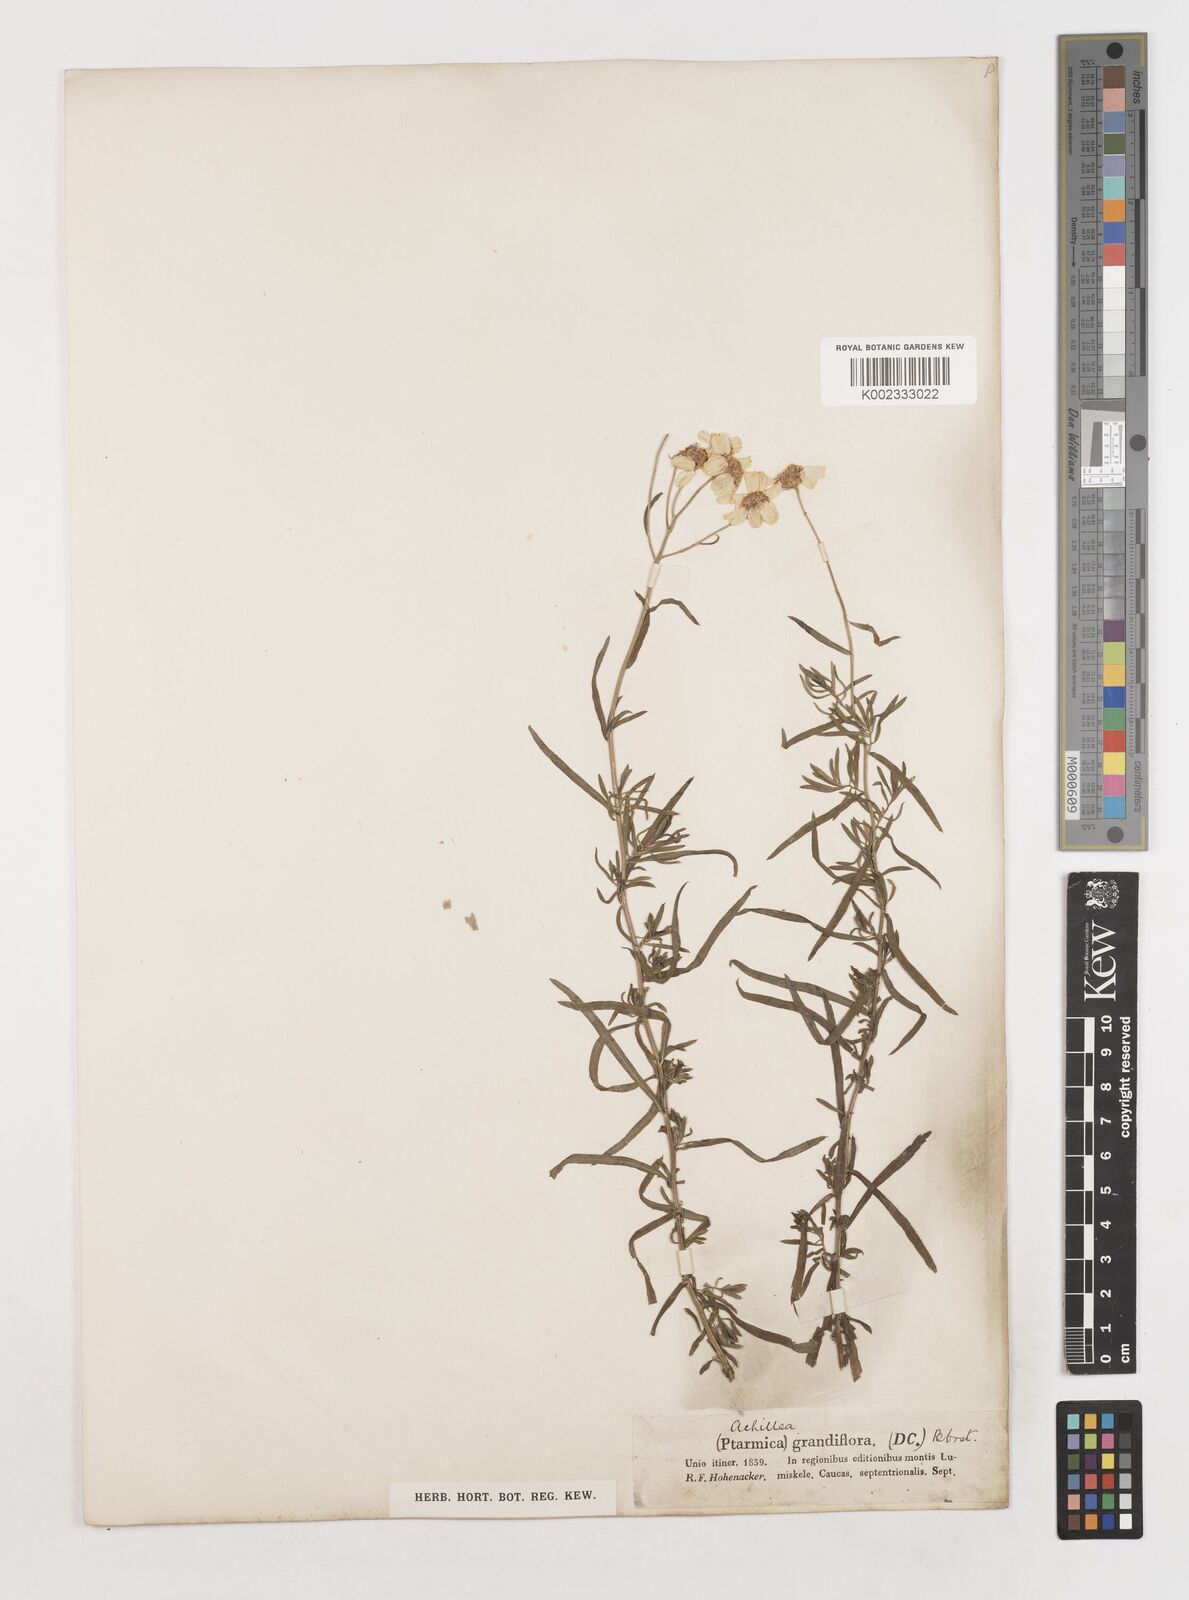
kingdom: Plantae
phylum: Tracheophyta
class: Magnoliopsida
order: Asterales
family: Asteraceae
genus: Achillea
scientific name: Achillea ptarmicifolia
